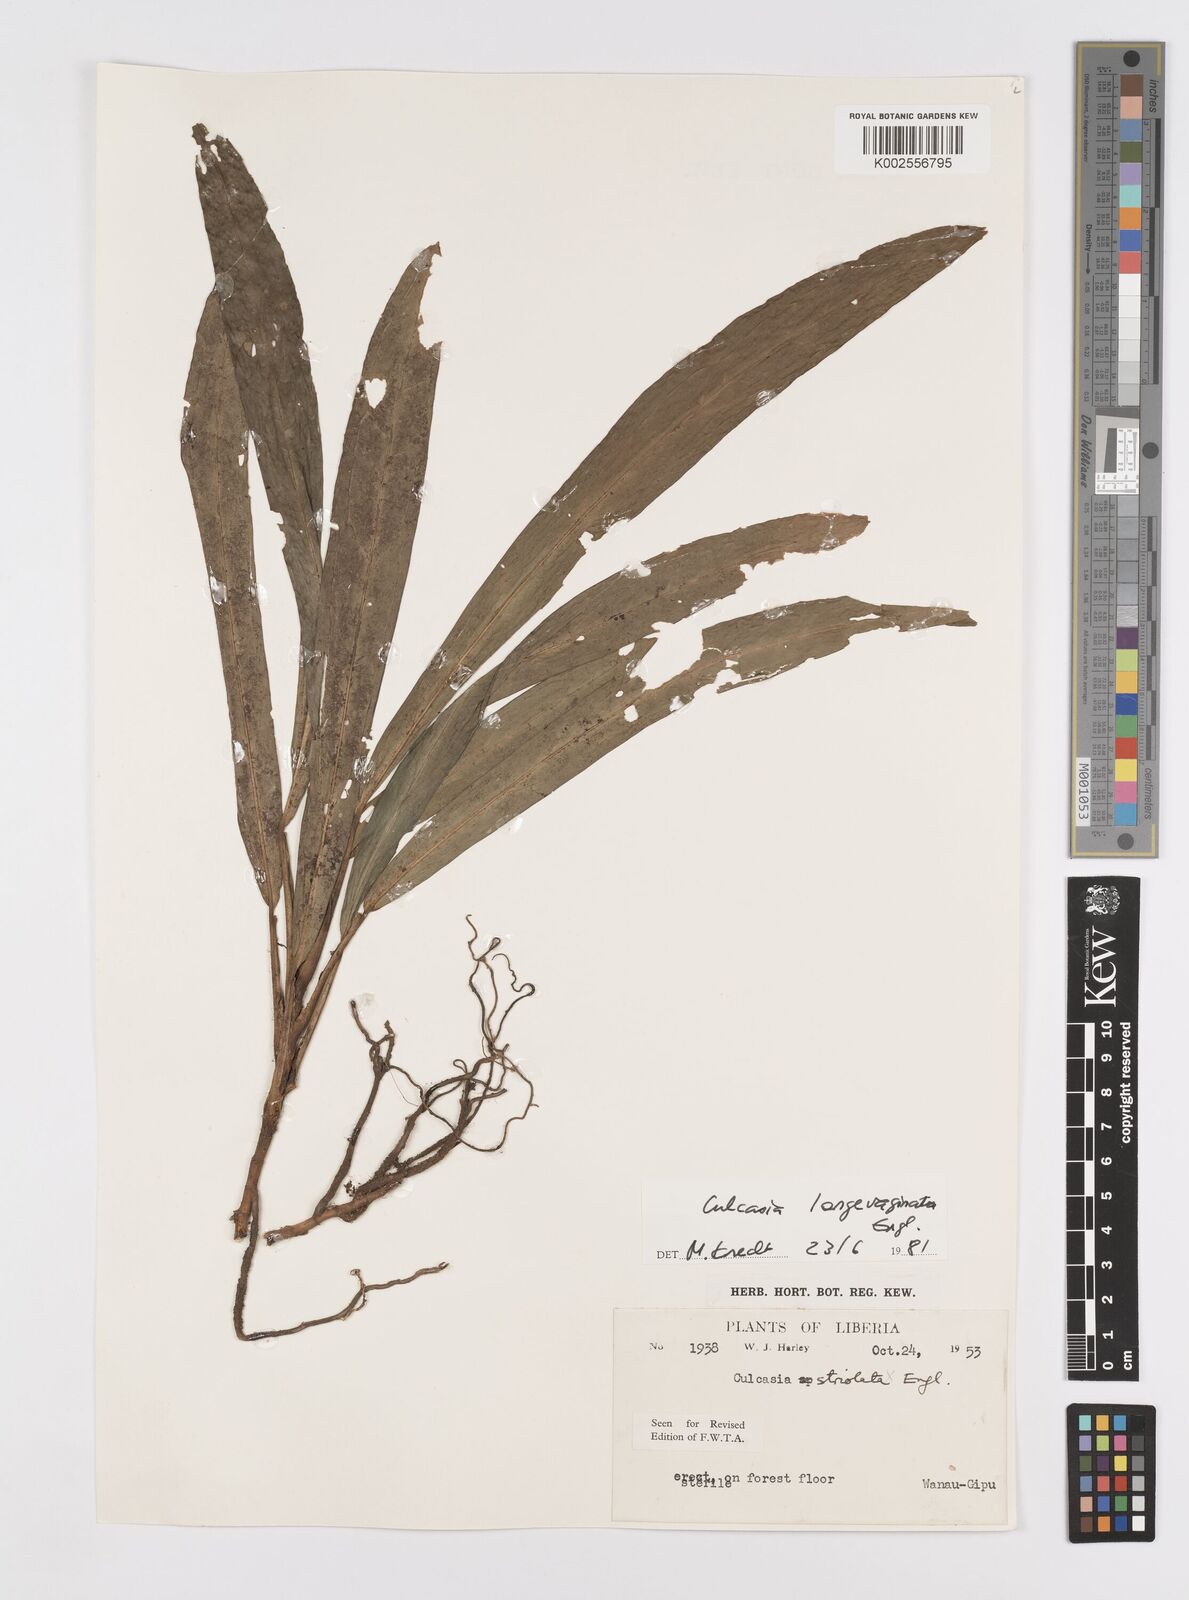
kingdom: Plantae
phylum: Tracheophyta
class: Liliopsida
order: Alismatales
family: Araceae
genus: Culcasia
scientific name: Culcasia striolata
